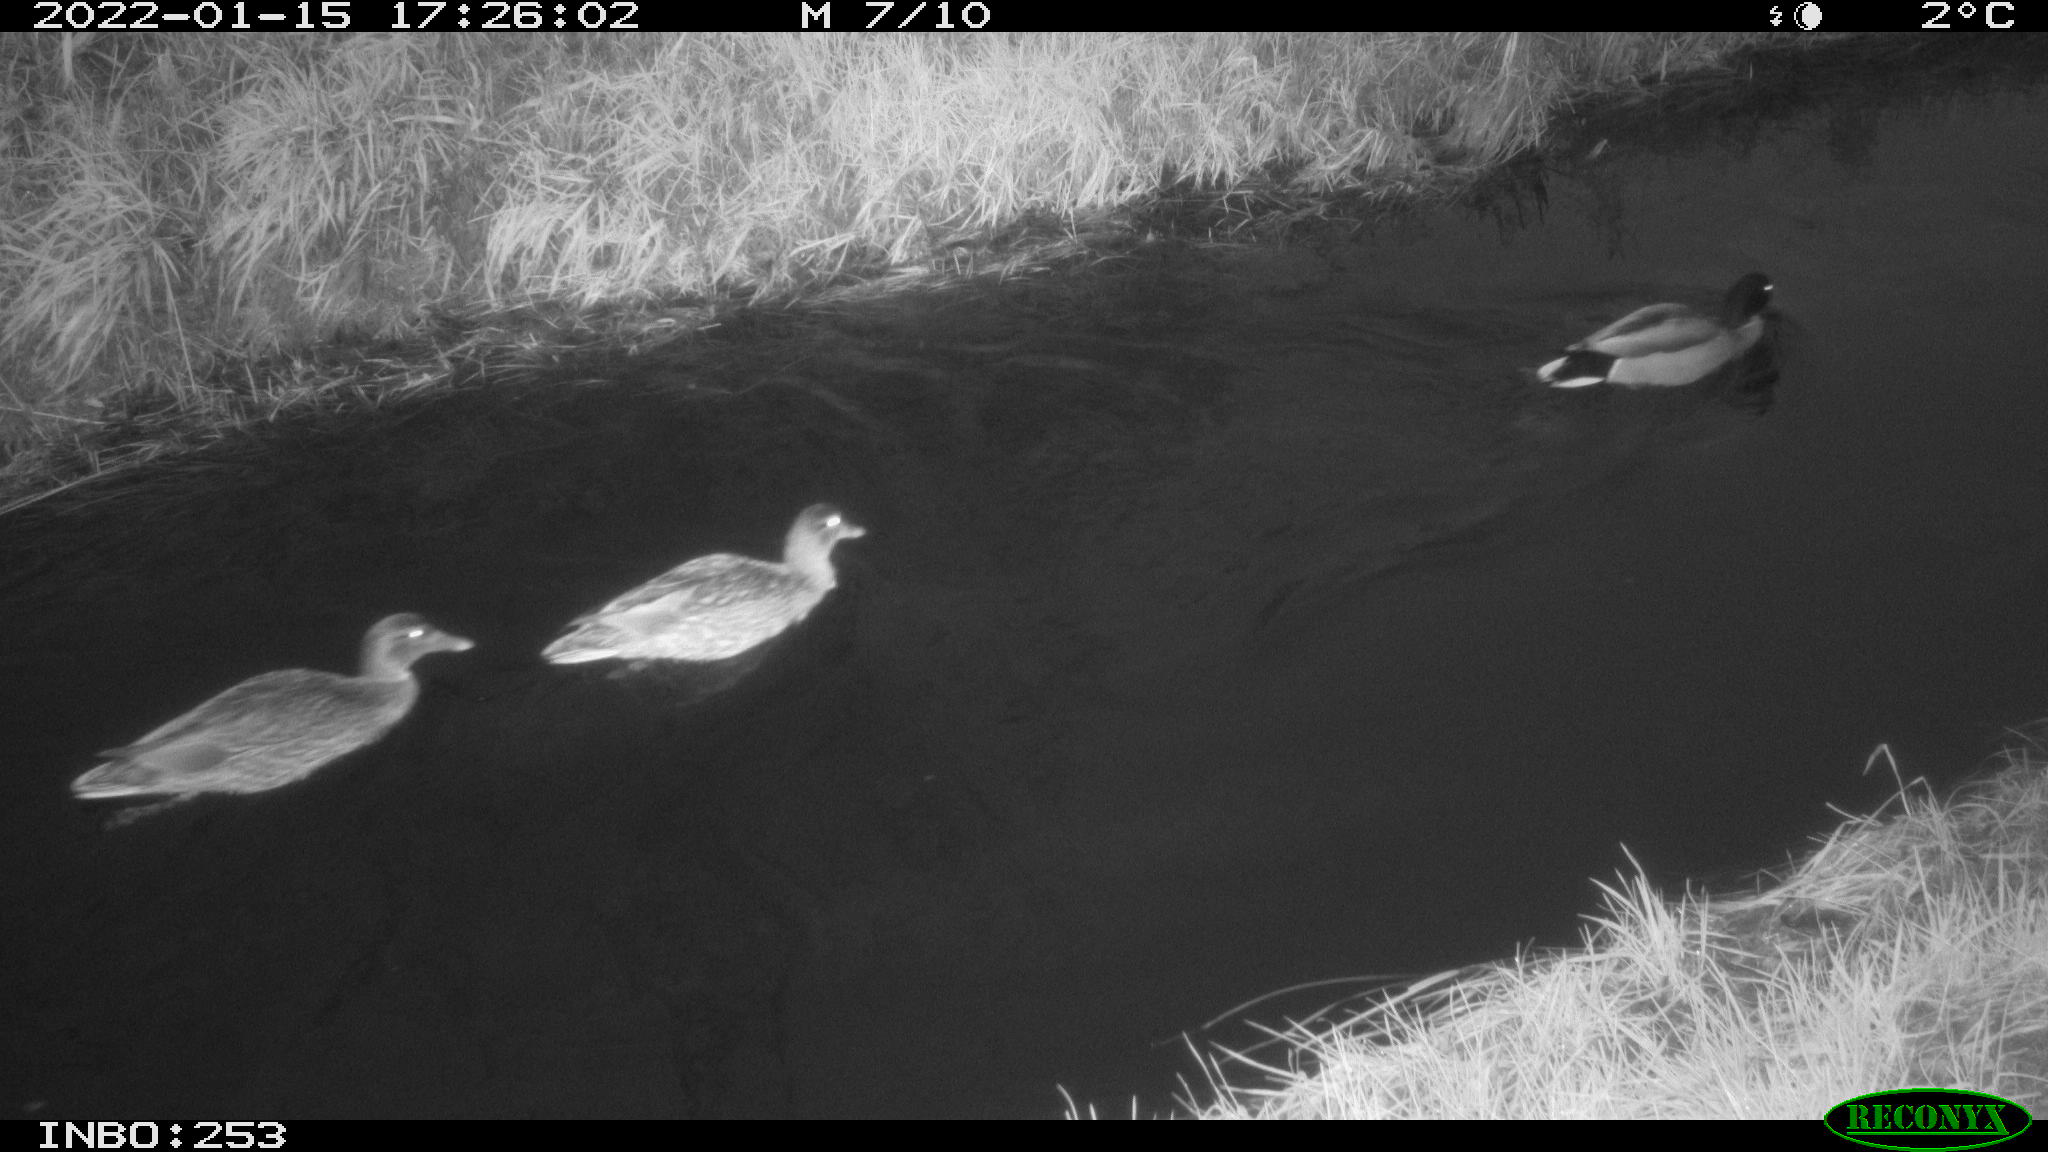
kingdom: Animalia
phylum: Chordata
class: Aves
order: Anseriformes
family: Anatidae
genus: Anas
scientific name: Anas
